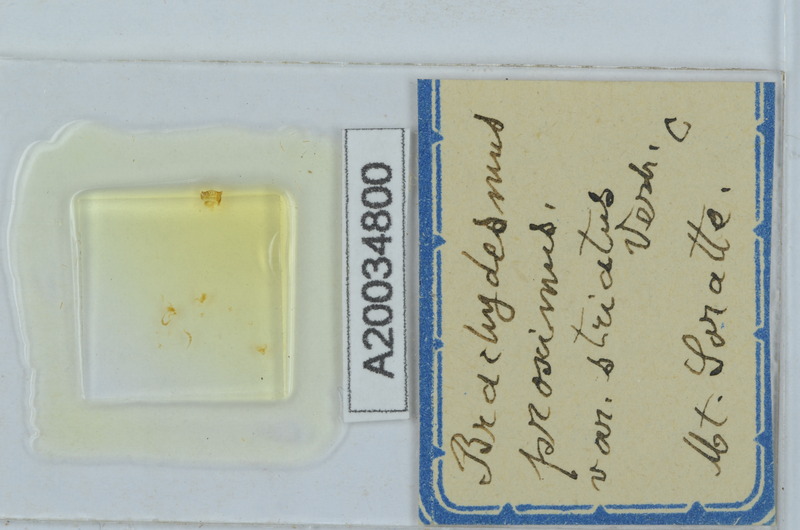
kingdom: Animalia
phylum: Arthropoda
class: Diplopoda
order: Polydesmida
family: Polydesmidae
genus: Brachydesmus
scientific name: Brachydesmus proximus
